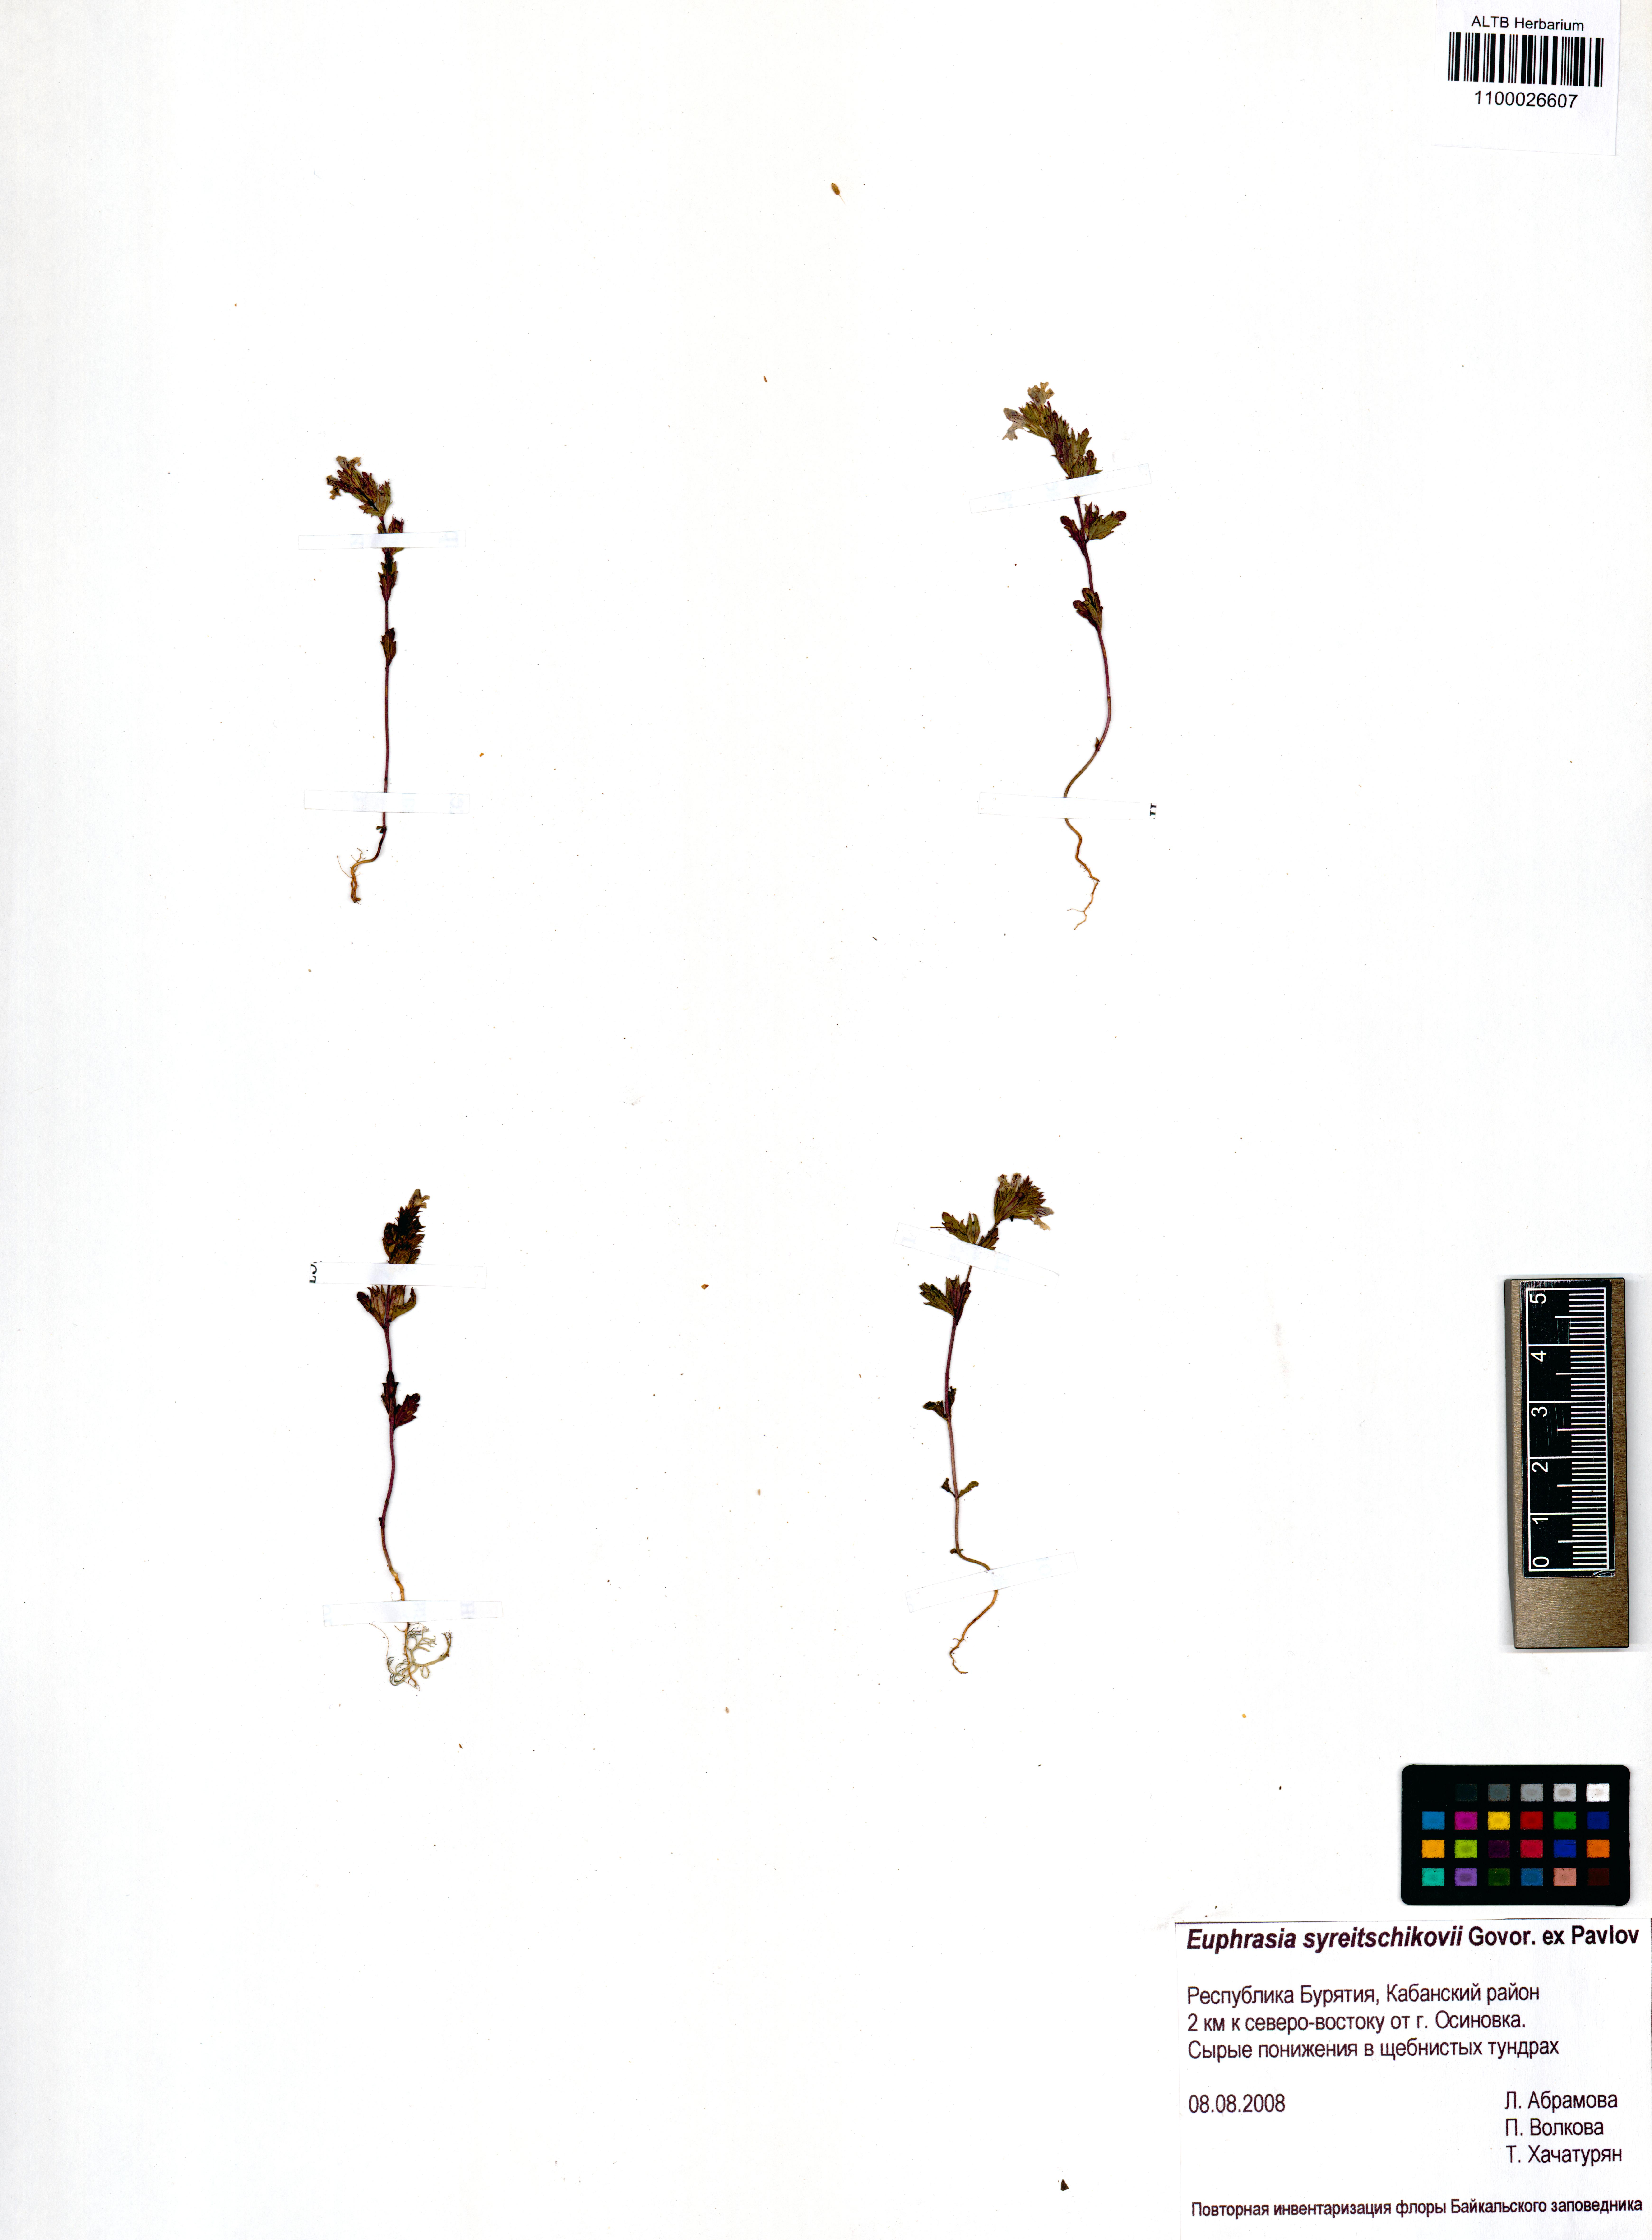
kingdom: Plantae
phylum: Tracheophyta
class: Magnoliopsida
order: Lamiales
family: Orobanchaceae
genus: Euphrasia
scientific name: Euphrasia syreitschikovii
